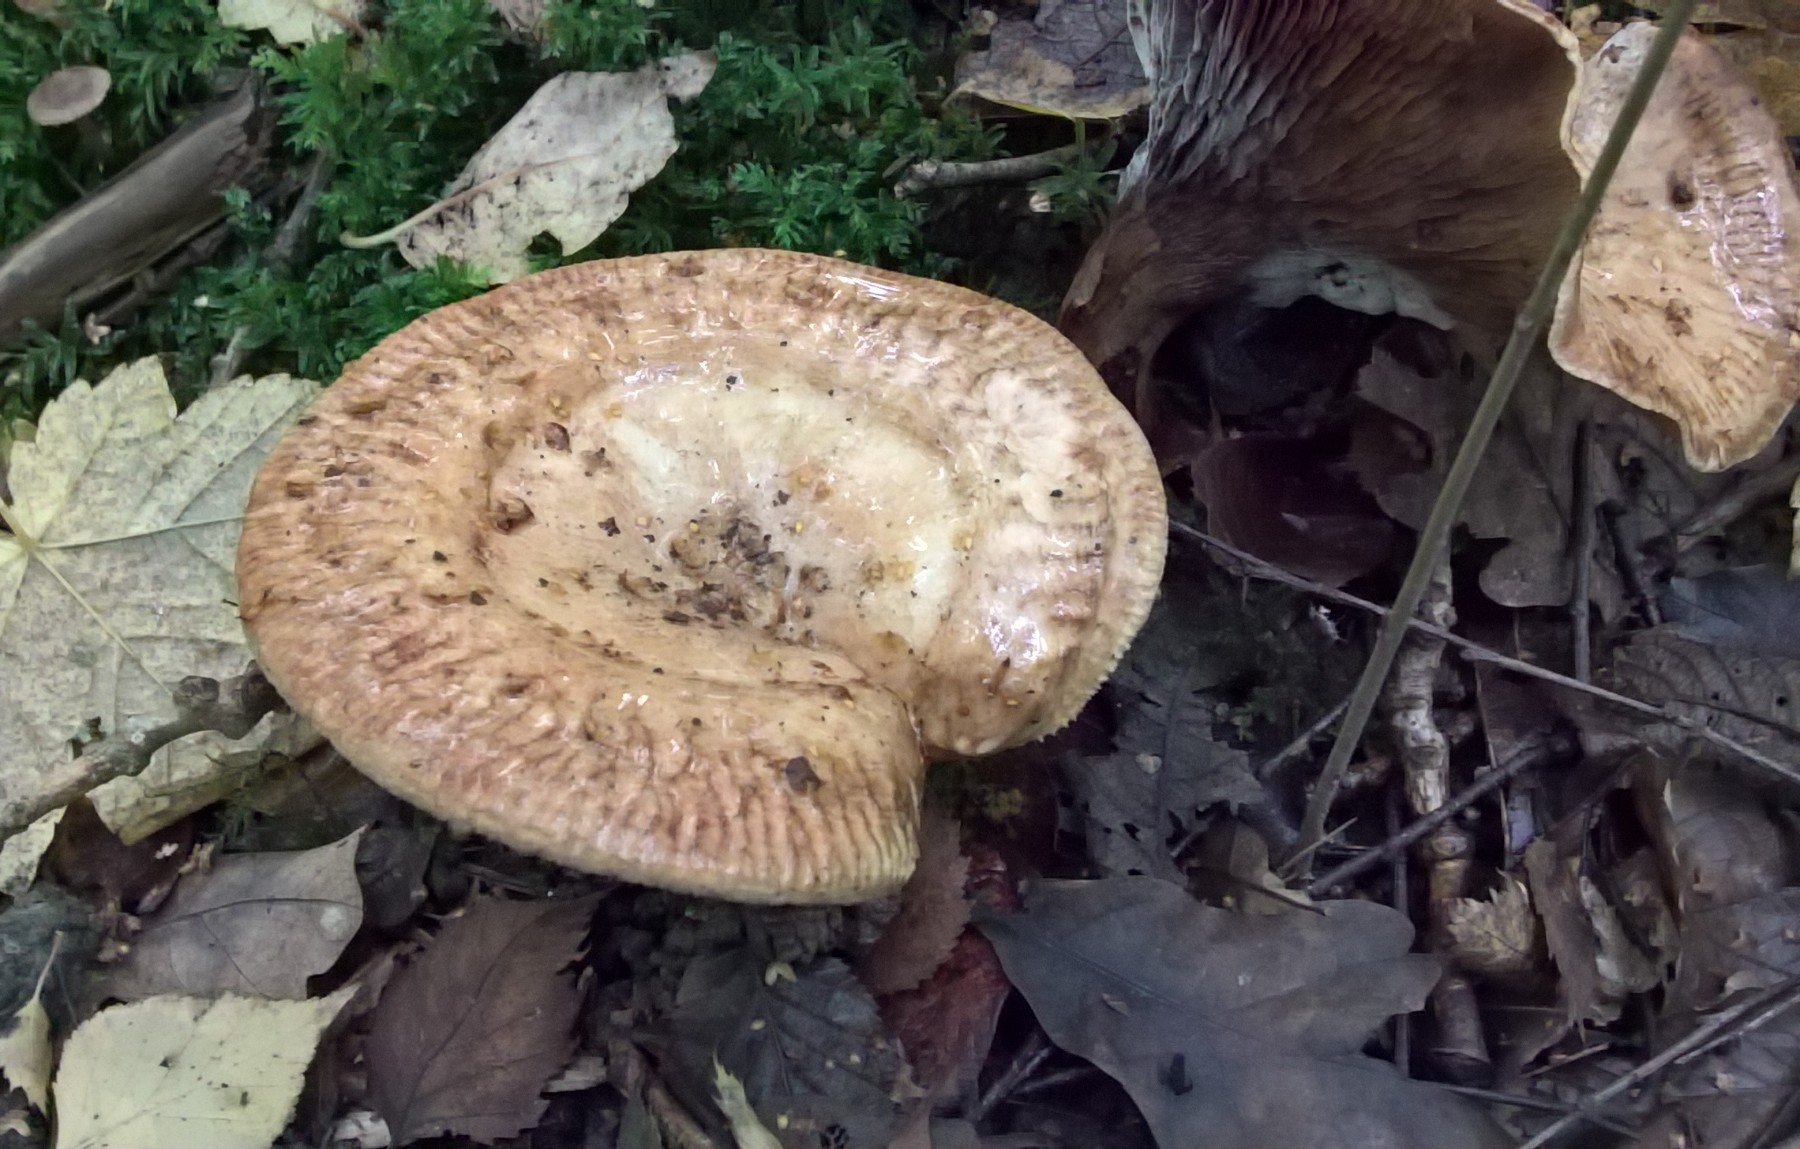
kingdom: Fungi
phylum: Basidiomycota
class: Agaricomycetes
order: Boletales
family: Paxillaceae
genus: Paxillus
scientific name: Paxillus
